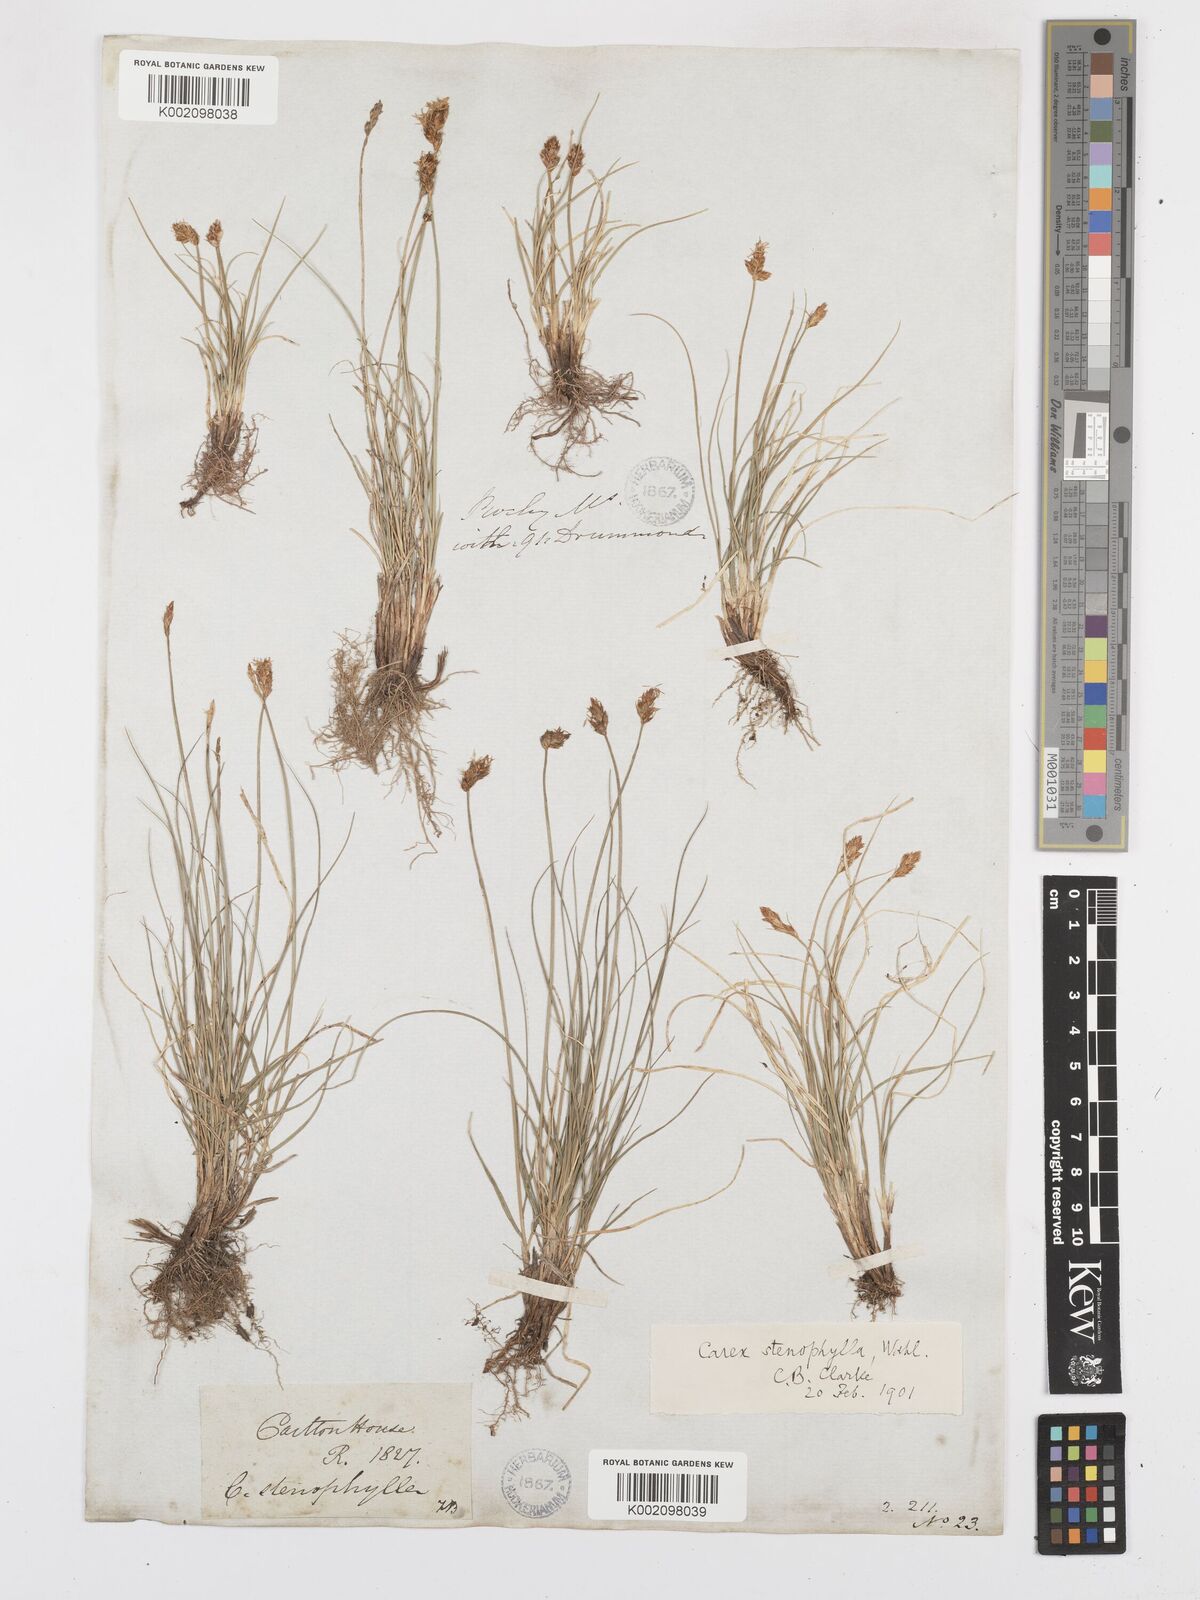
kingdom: Plantae
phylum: Tracheophyta
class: Liliopsida
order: Poales
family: Cyperaceae
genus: Carex
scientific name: Carex duriuscula
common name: Involute-leaved sedge
